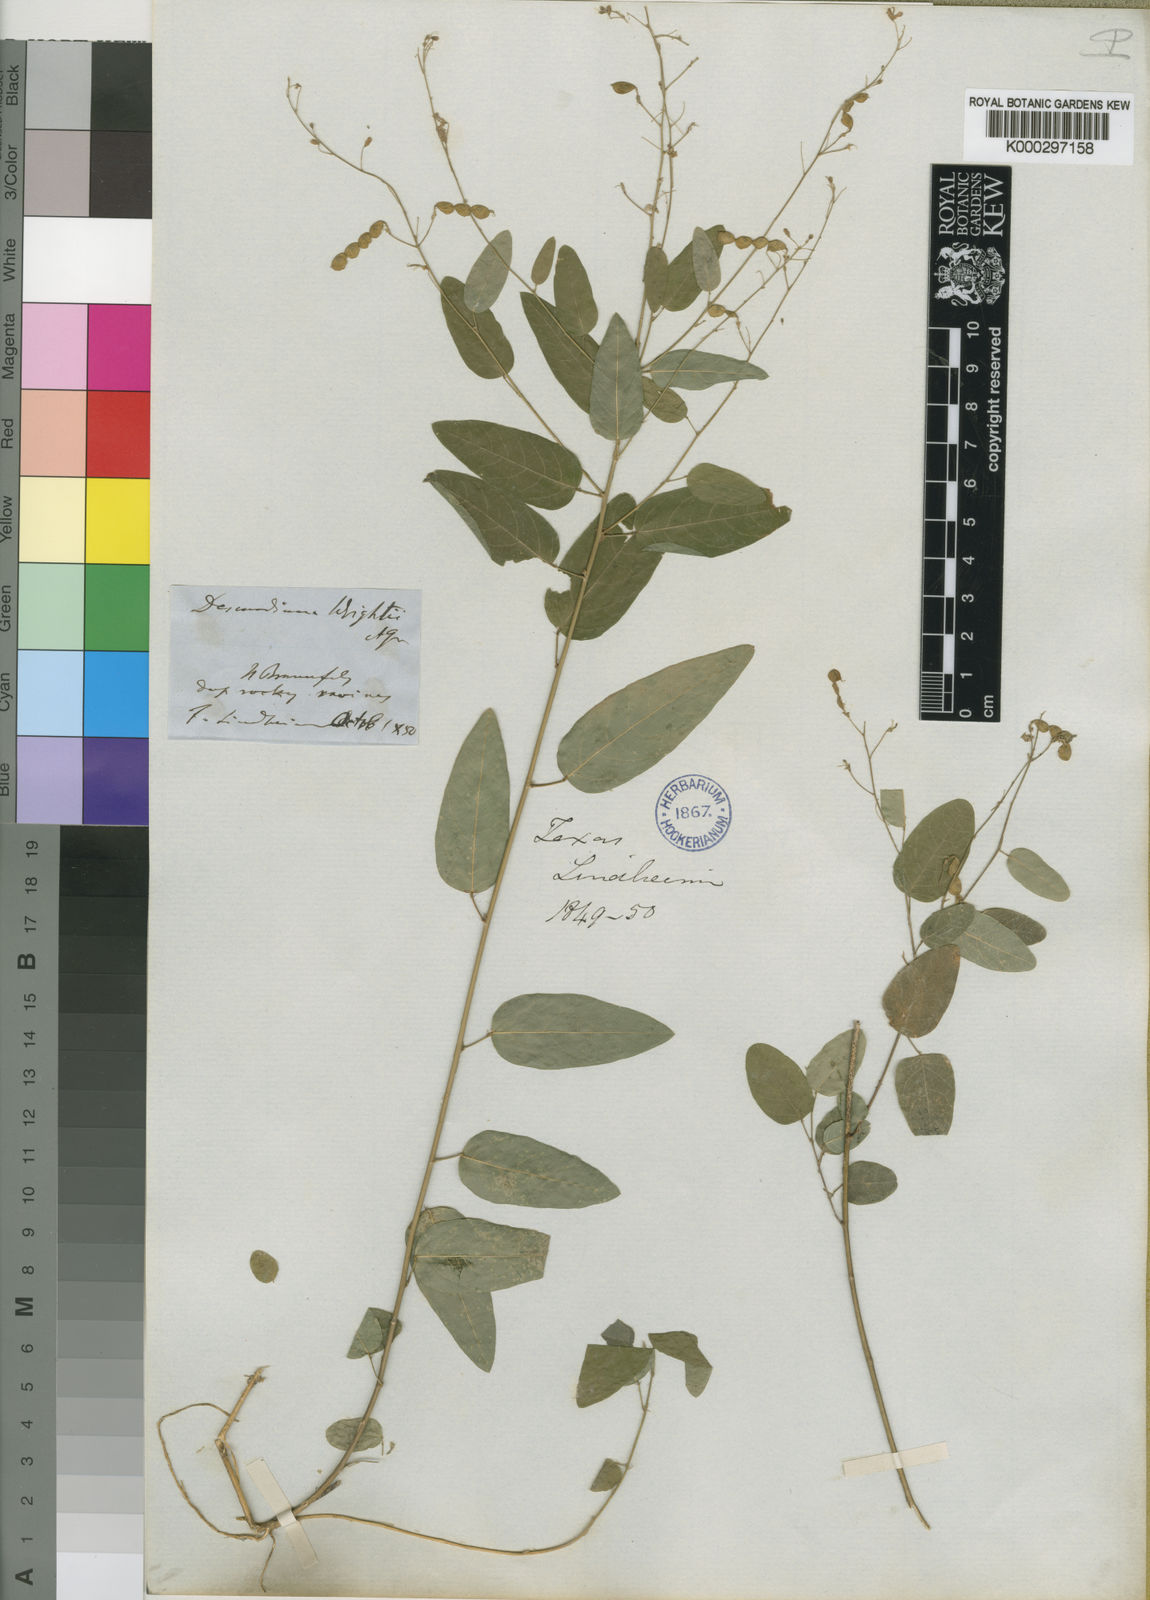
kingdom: Plantae
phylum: Tracheophyta
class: Magnoliopsida
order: Fabales
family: Fabaceae
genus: Desmodium
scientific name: Desmodium psilophyllum
